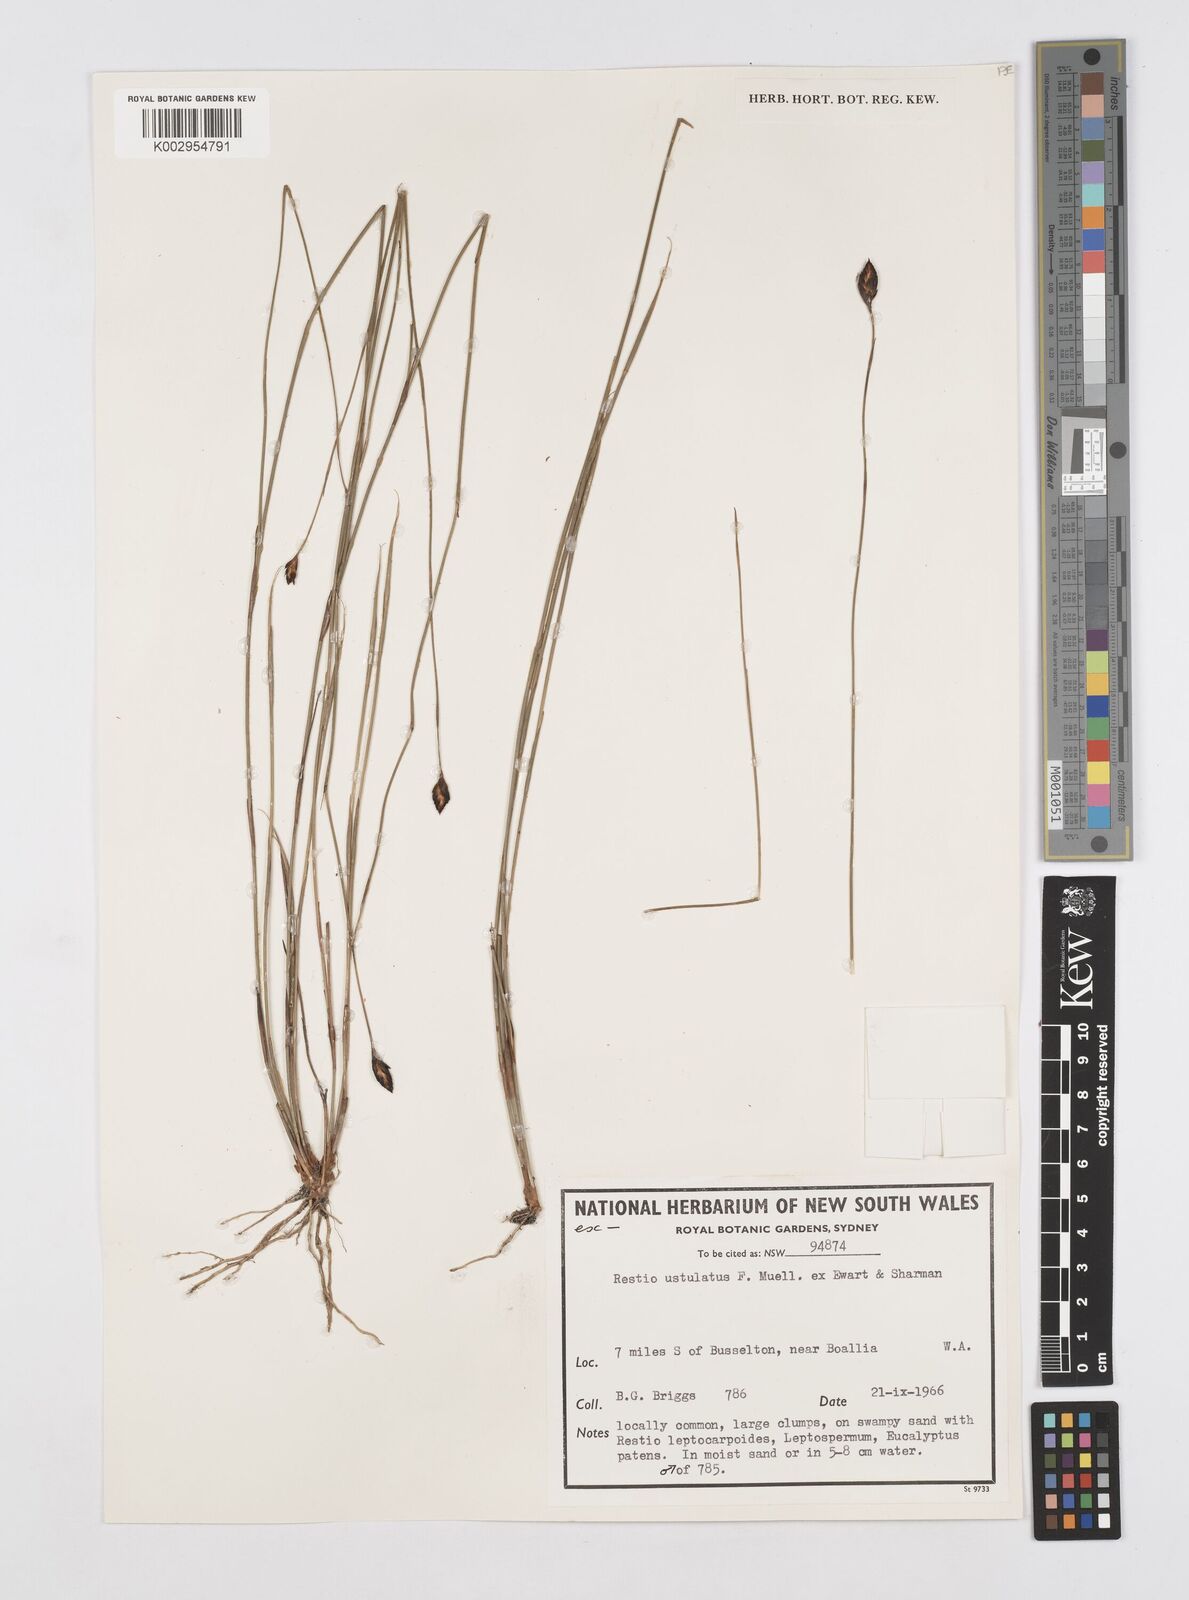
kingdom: Plantae
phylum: Tracheophyta
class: Liliopsida
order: Poales
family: Restionaceae
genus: Melanostachya
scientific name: Melanostachya ustulata
